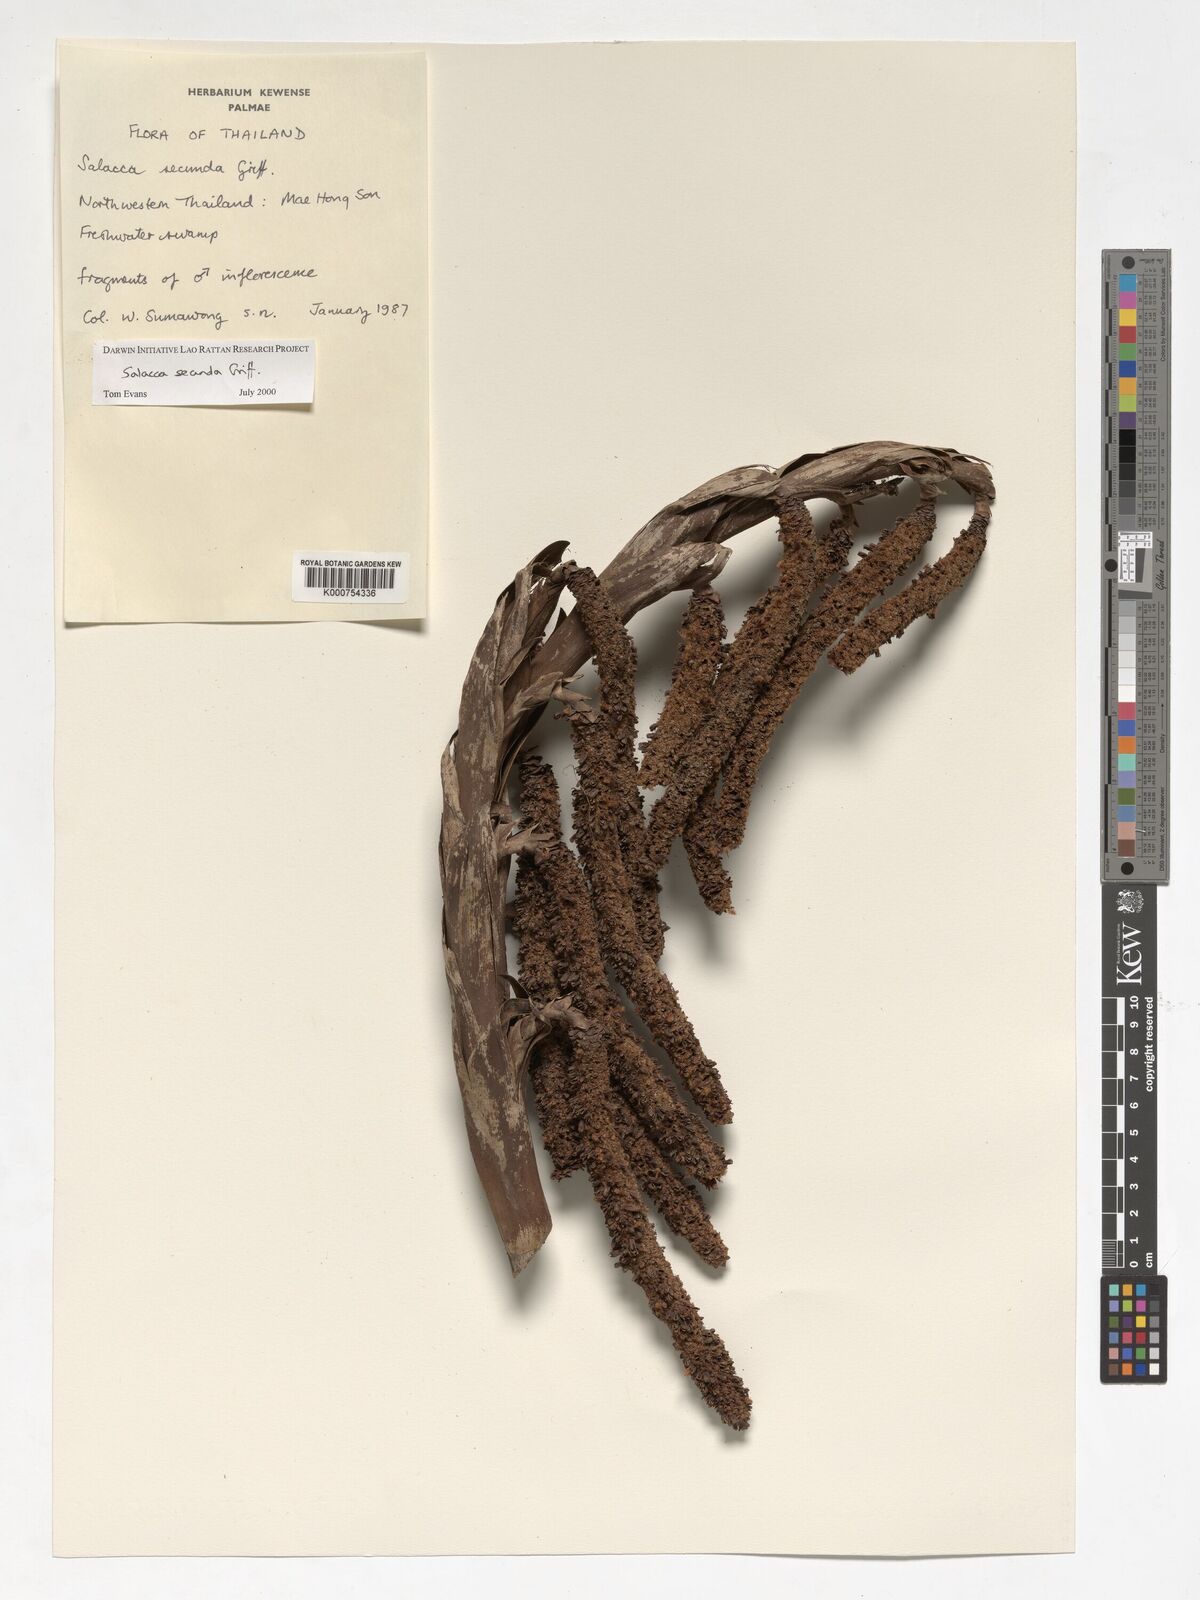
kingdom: Plantae
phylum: Tracheophyta
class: Liliopsida
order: Arecales
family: Arecaceae
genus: Salacca
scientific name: Salacca secunda
